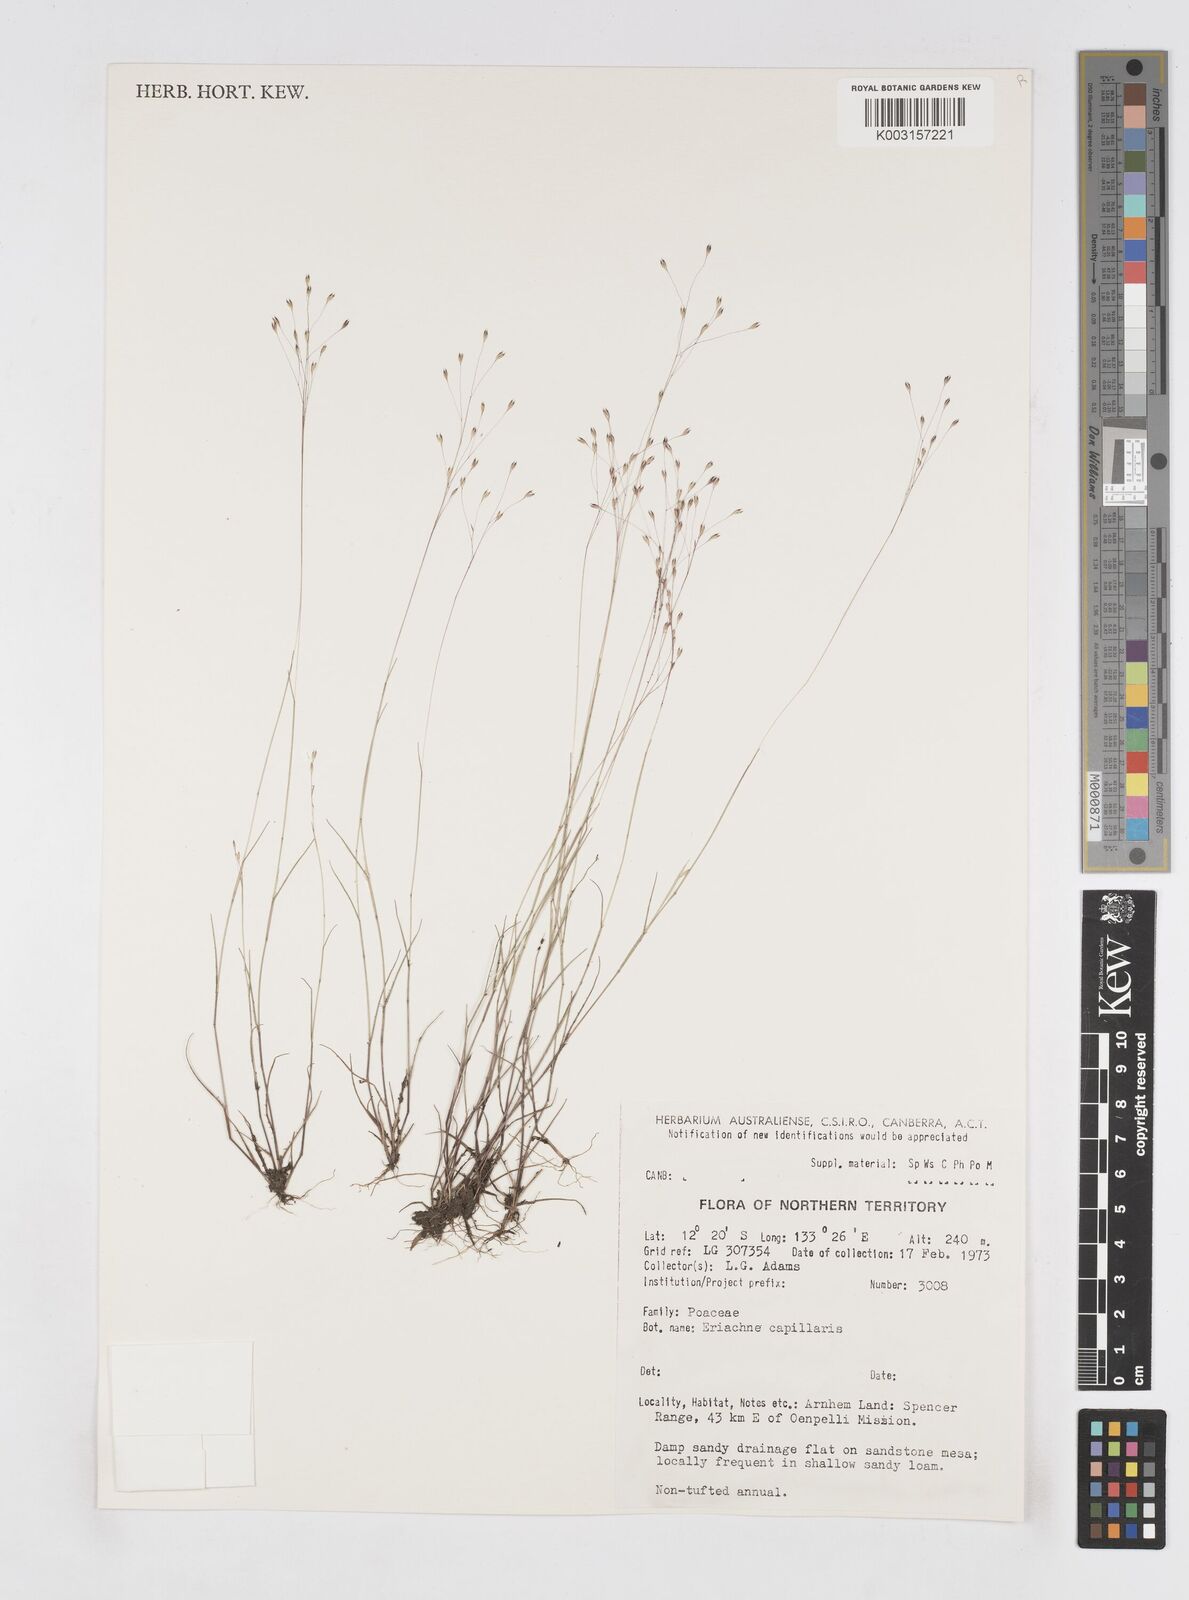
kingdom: Plantae
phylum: Tracheophyta
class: Liliopsida
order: Poales
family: Poaceae
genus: Eriachne
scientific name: Eriachne capillaris
